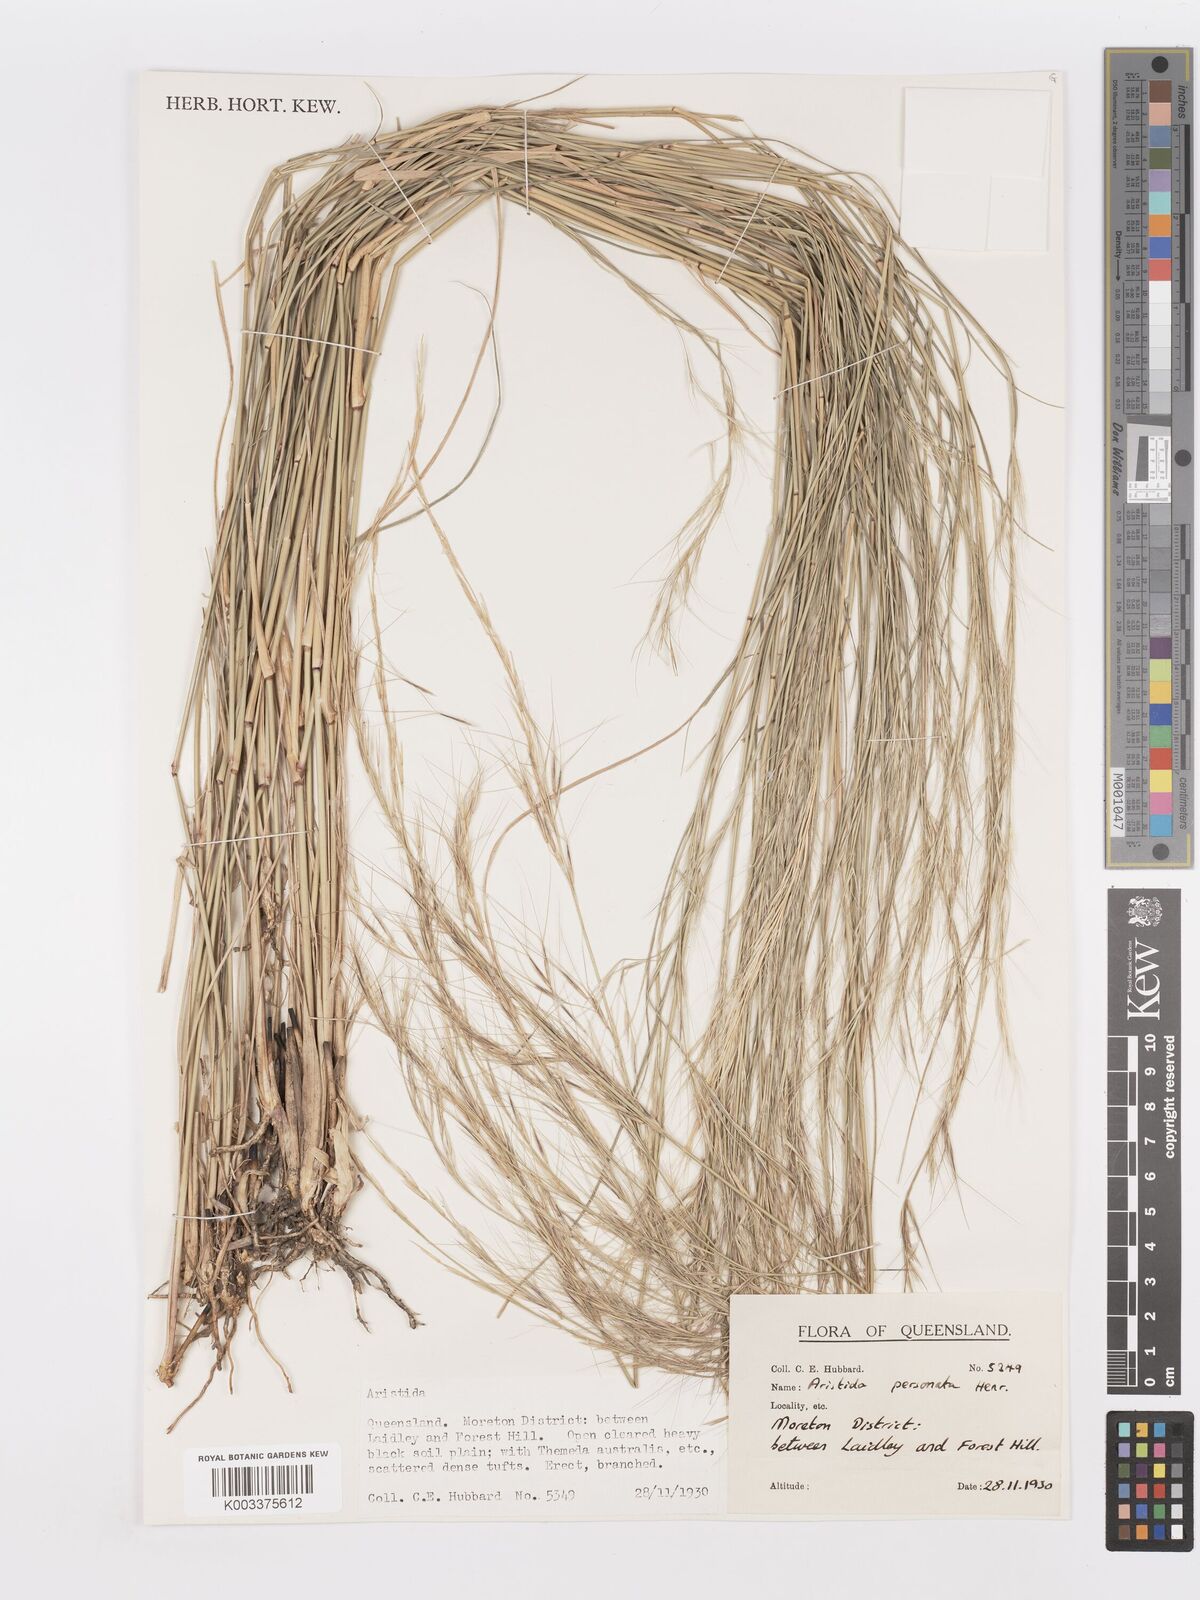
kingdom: Plantae
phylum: Tracheophyta
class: Liliopsida
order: Poales
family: Poaceae
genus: Aristida
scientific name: Aristida personata
